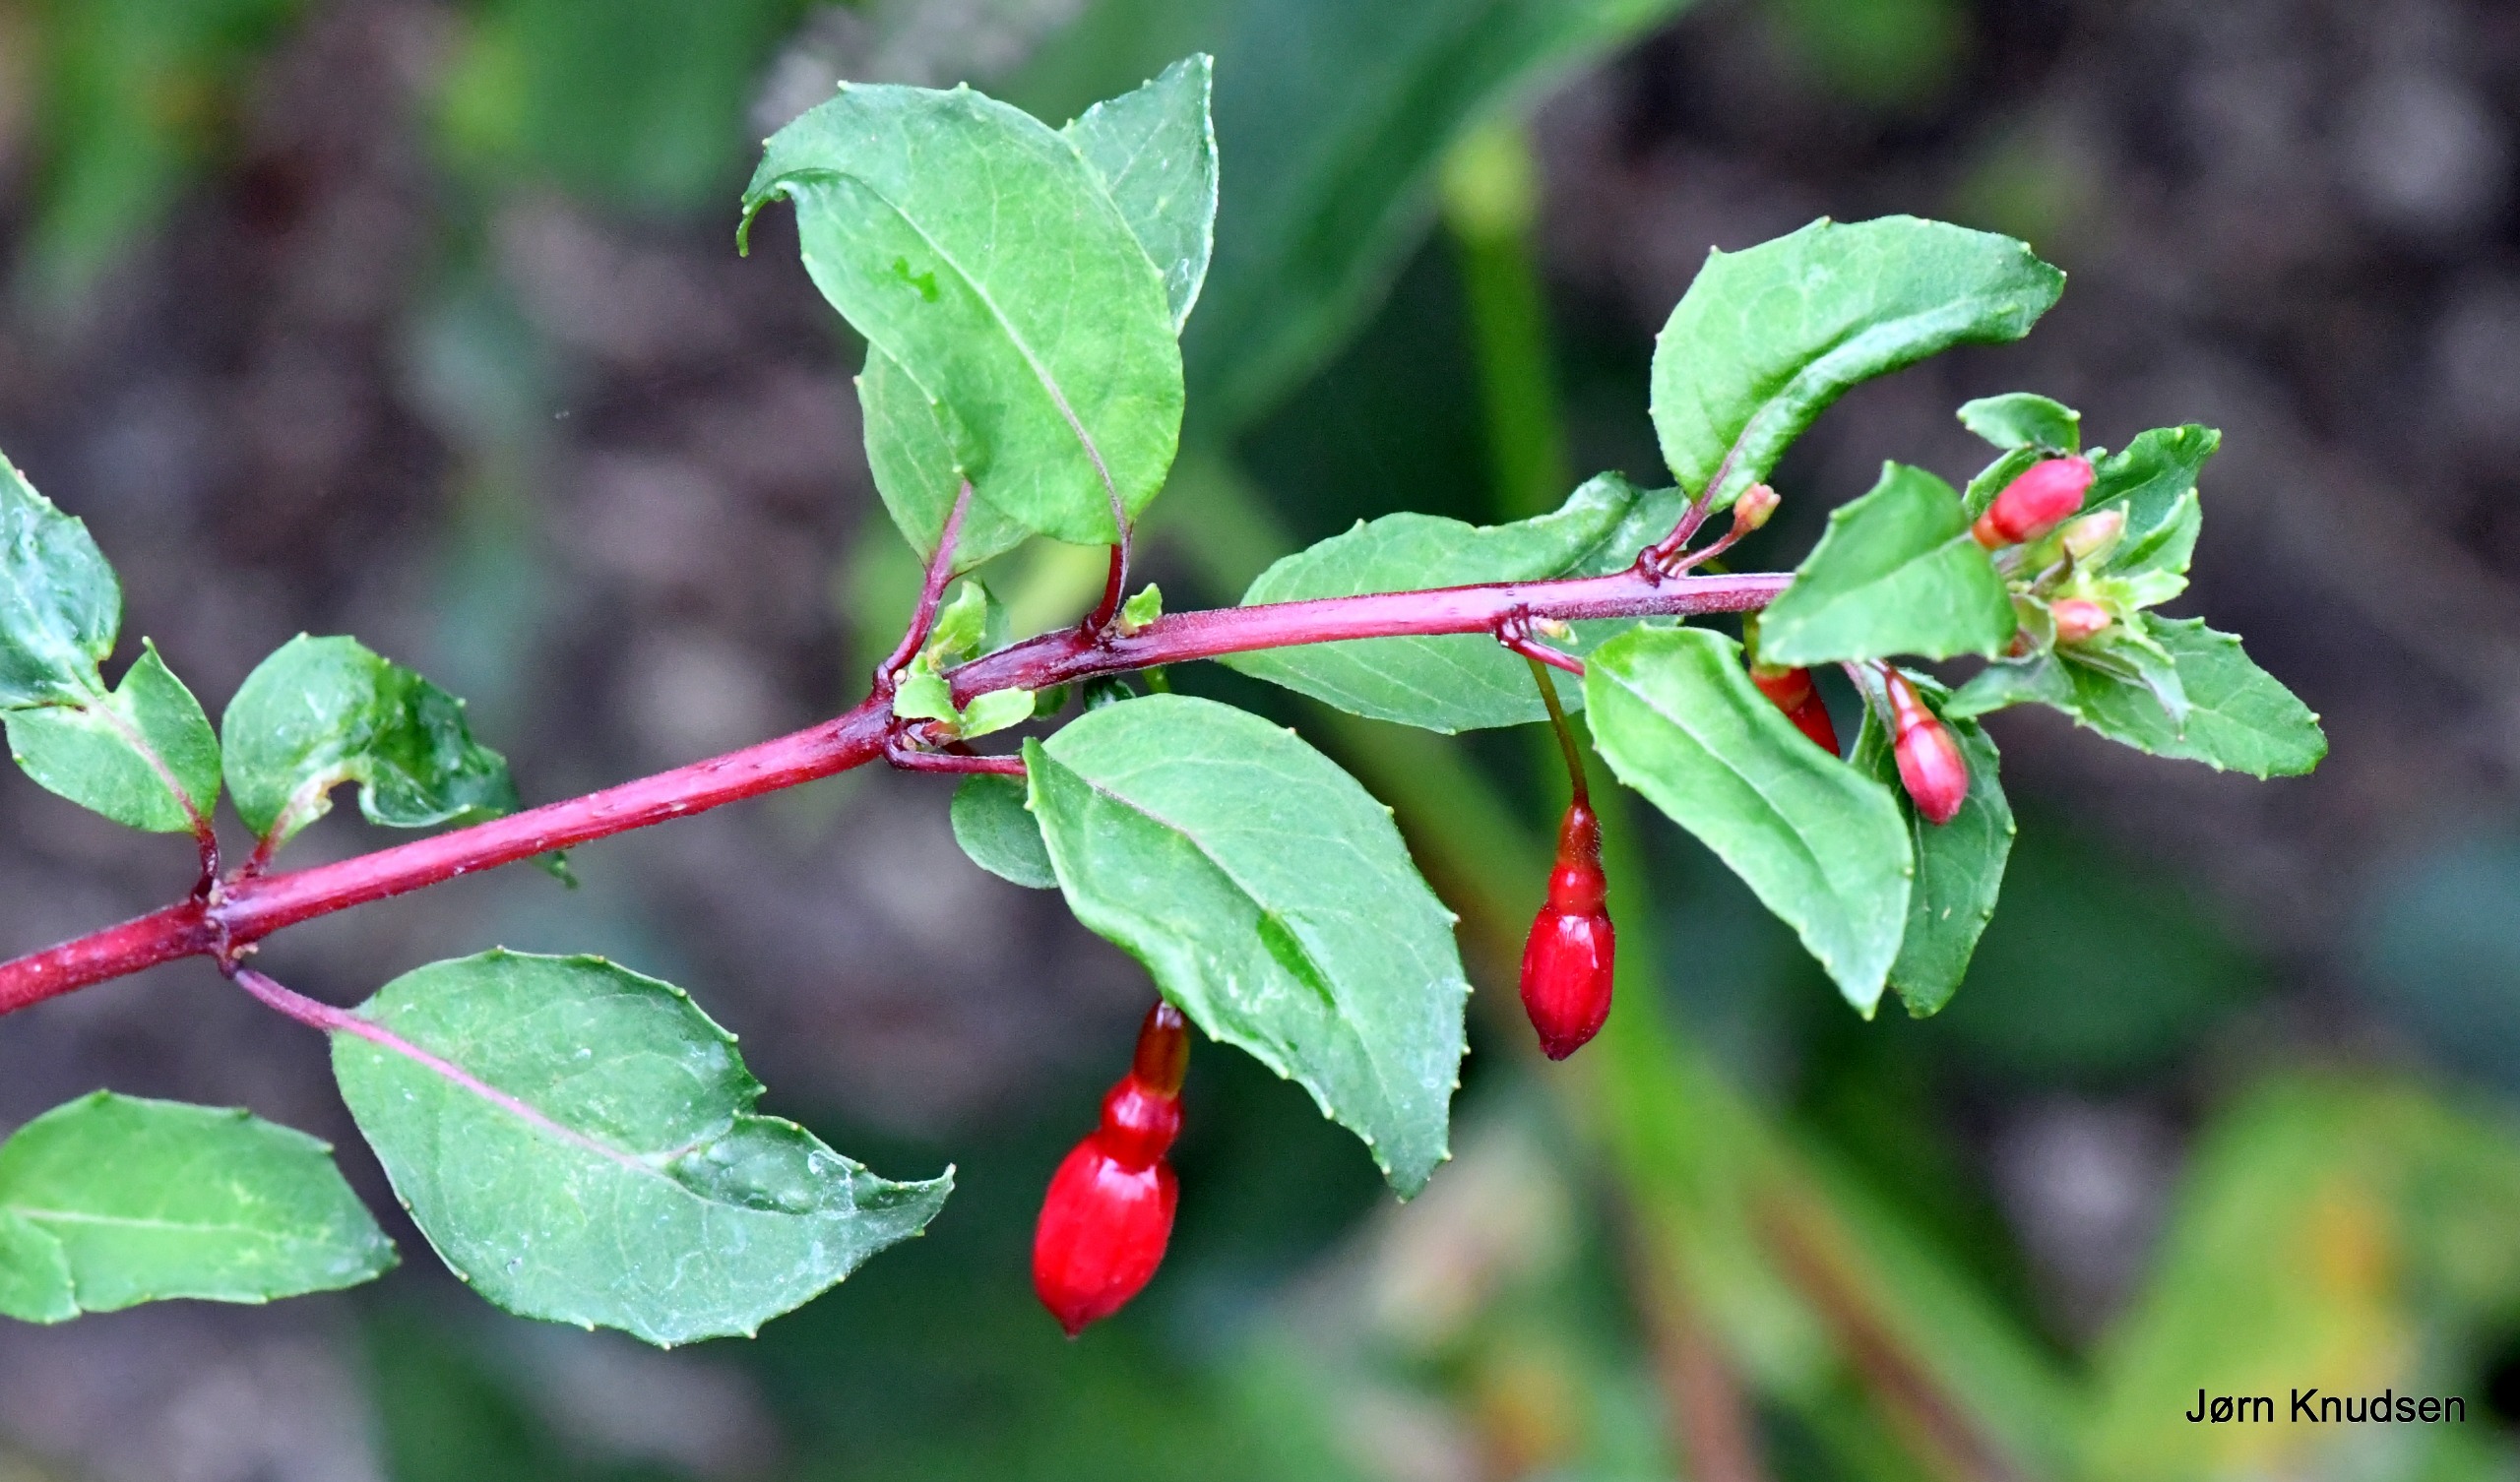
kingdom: Plantae
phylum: Tracheophyta
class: Magnoliopsida
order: Myrtales
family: Onagraceae
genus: Fuchsia
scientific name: Fuchsia standishii
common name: Almindelig fuchsia
